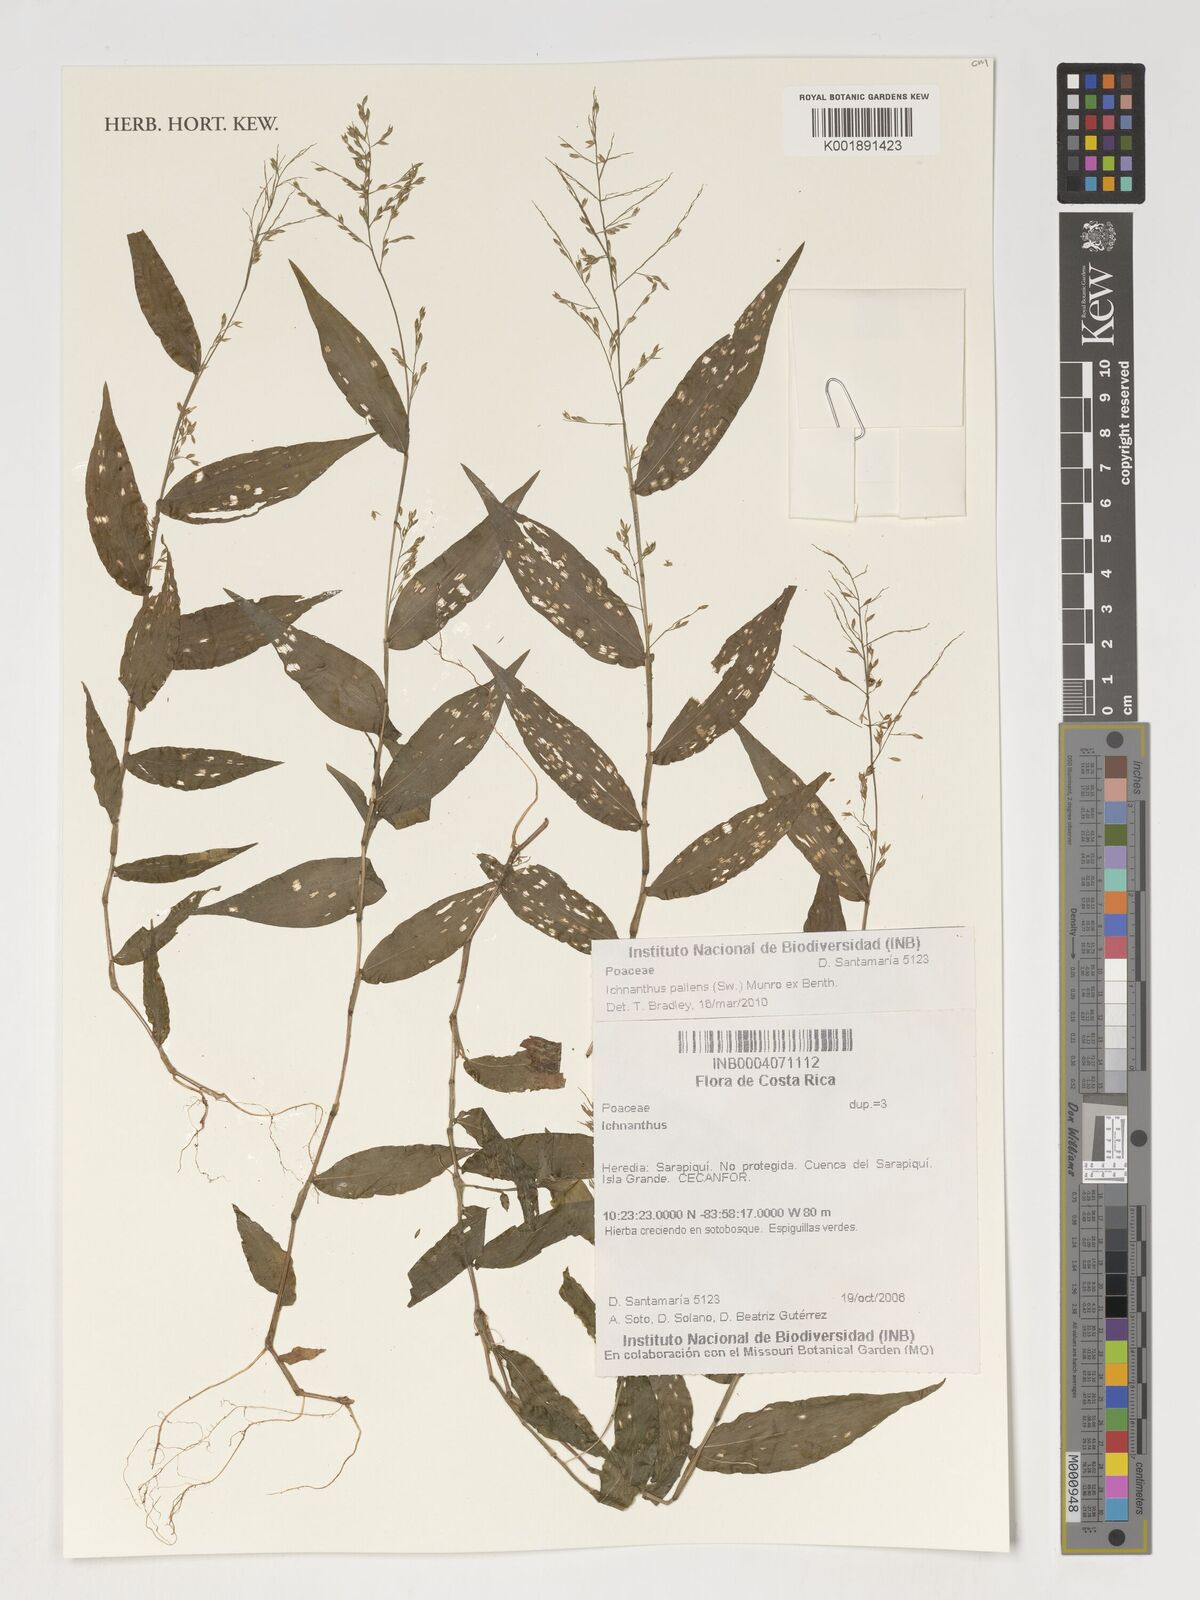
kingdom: Plantae
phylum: Tracheophyta
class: Liliopsida
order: Poales
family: Poaceae
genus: Ichnanthus
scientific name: Ichnanthus
